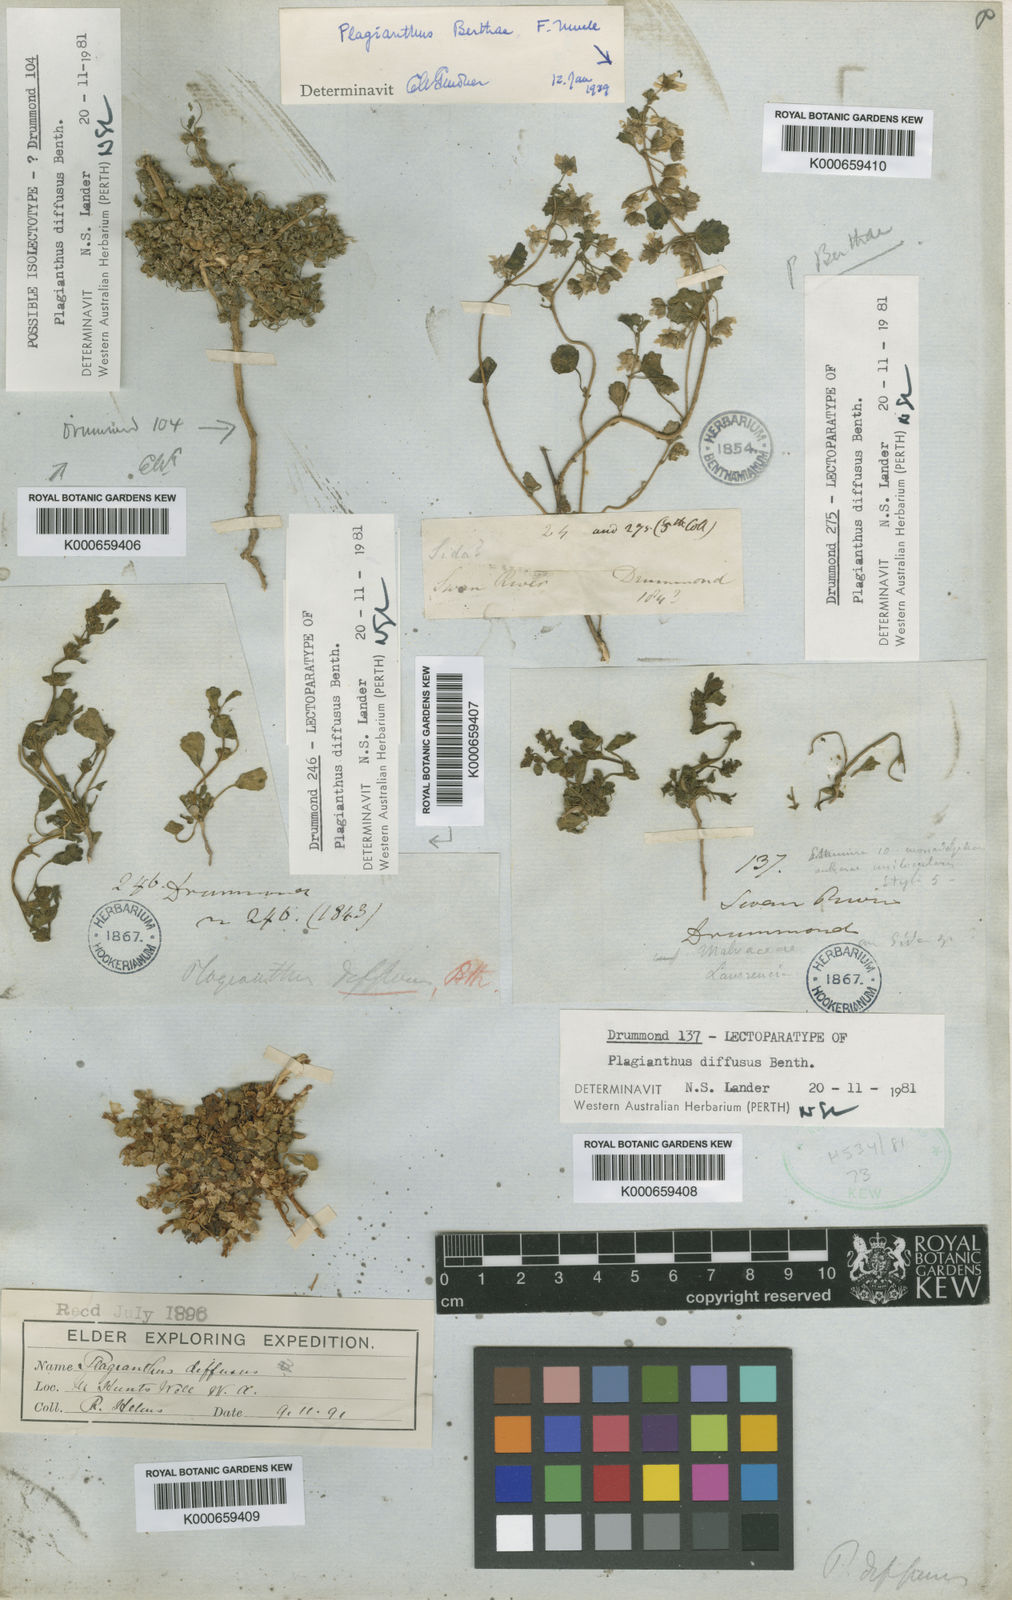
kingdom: Plantae
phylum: Tracheophyta
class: Magnoliopsida
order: Malvales
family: Malvaceae
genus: Lawrencia
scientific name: Lawrencia diffusa
